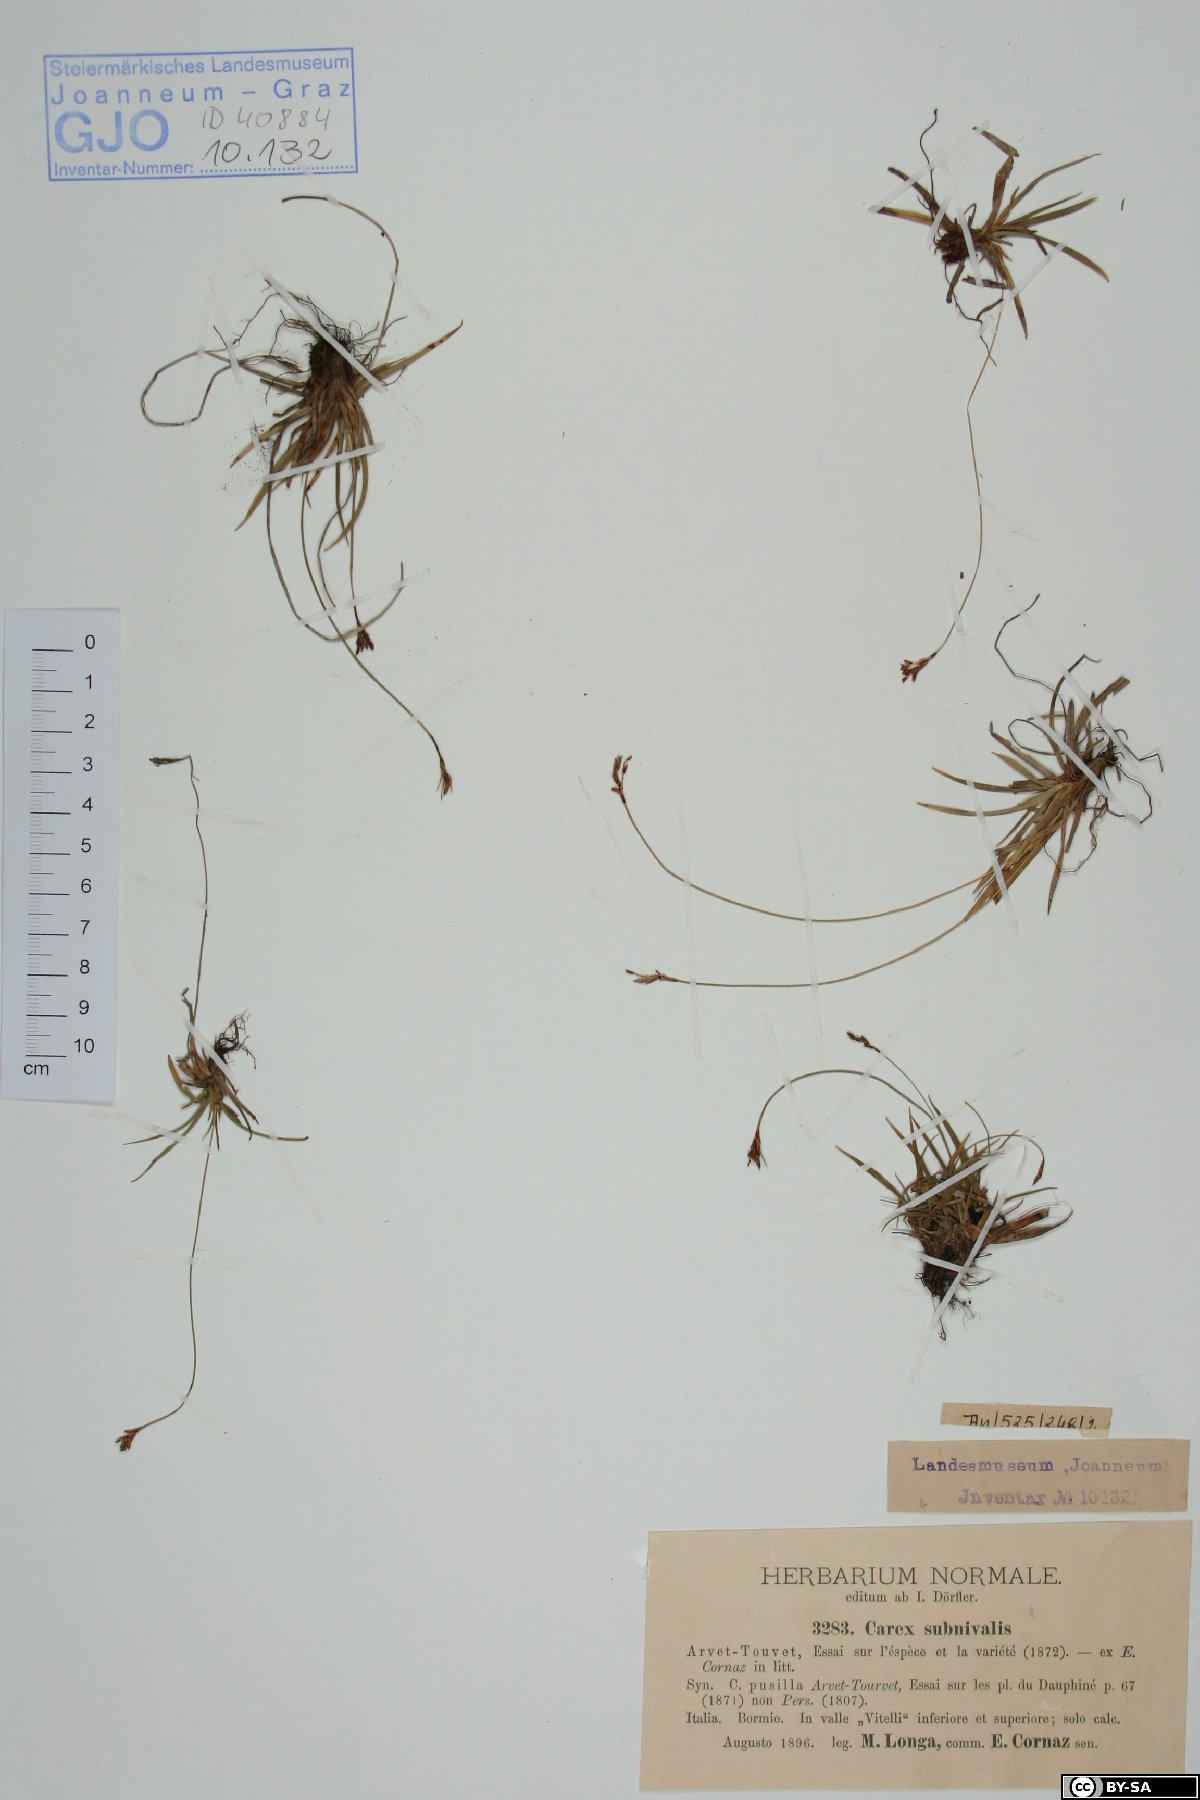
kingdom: Plantae
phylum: Tracheophyta
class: Liliopsida
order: Poales
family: Cyperaceae
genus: Carex
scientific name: Carex ornithopoda
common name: Bird's-foot sedge
